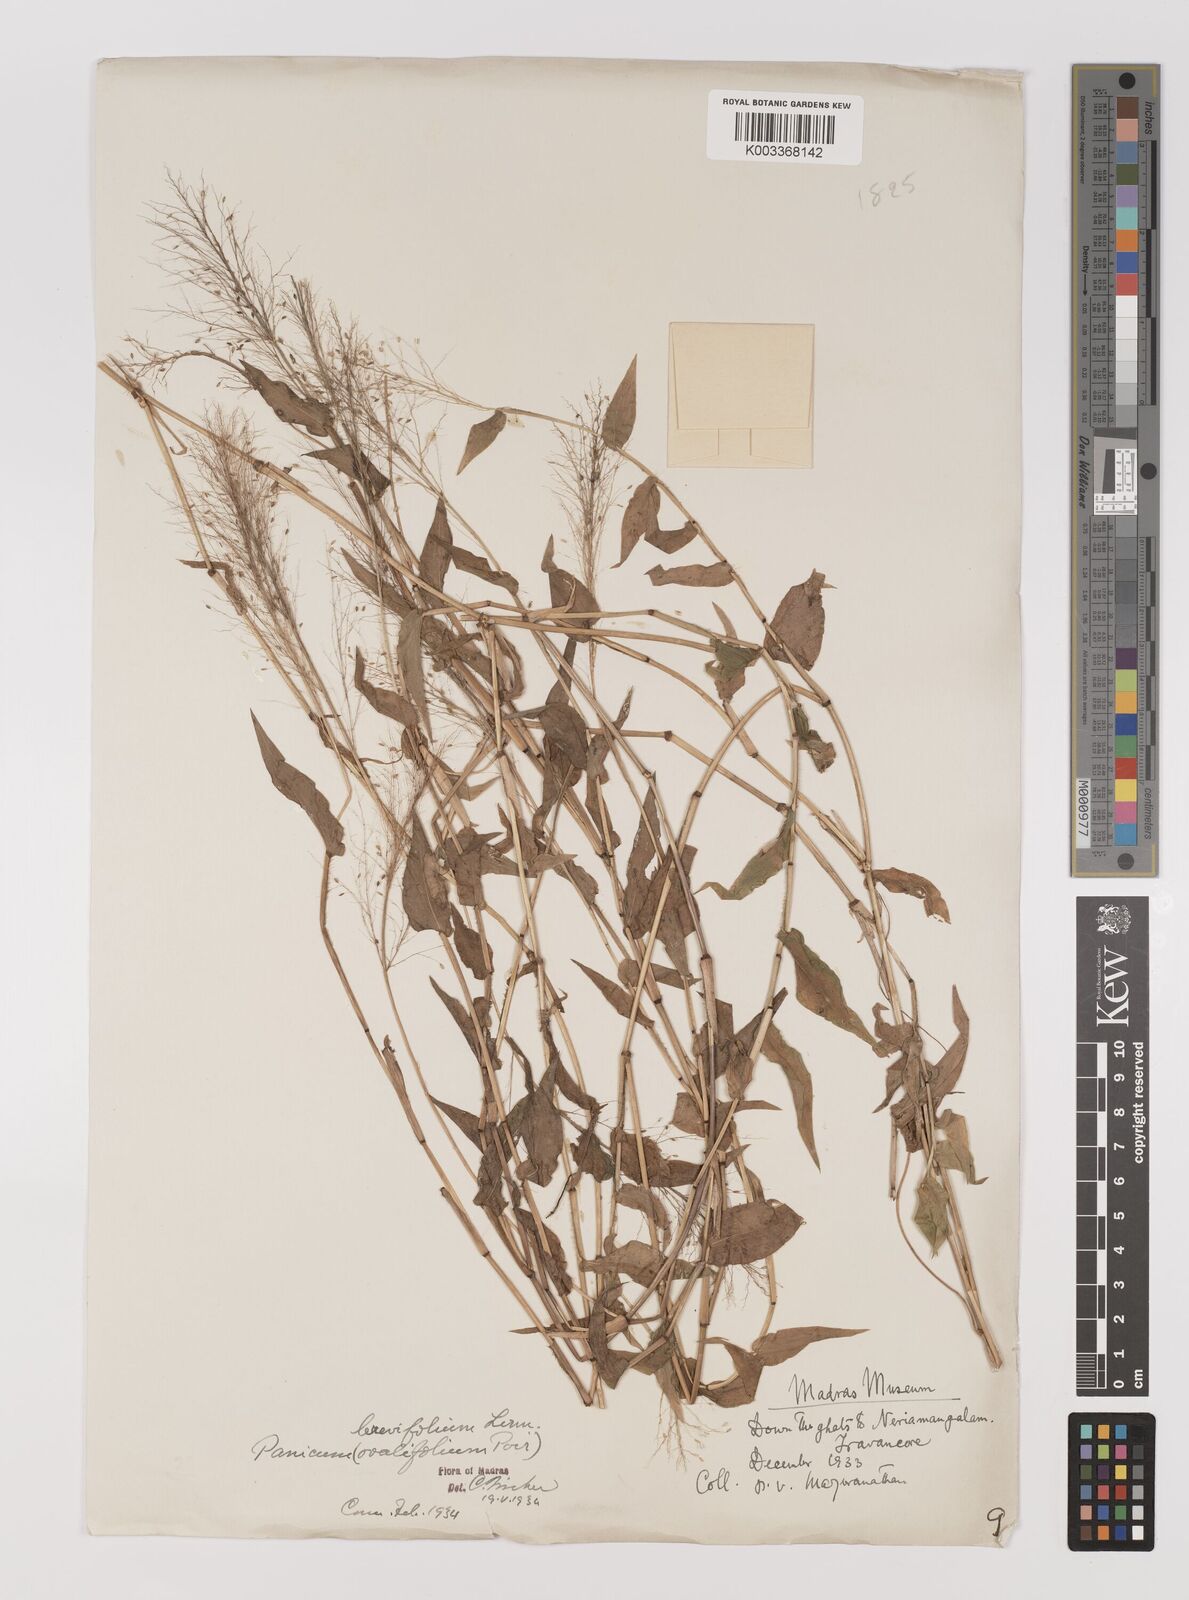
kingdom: Plantae
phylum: Tracheophyta
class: Liliopsida
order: Poales
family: Poaceae
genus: Panicum
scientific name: Panicum brevifolium
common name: Shortleaf panic grass
